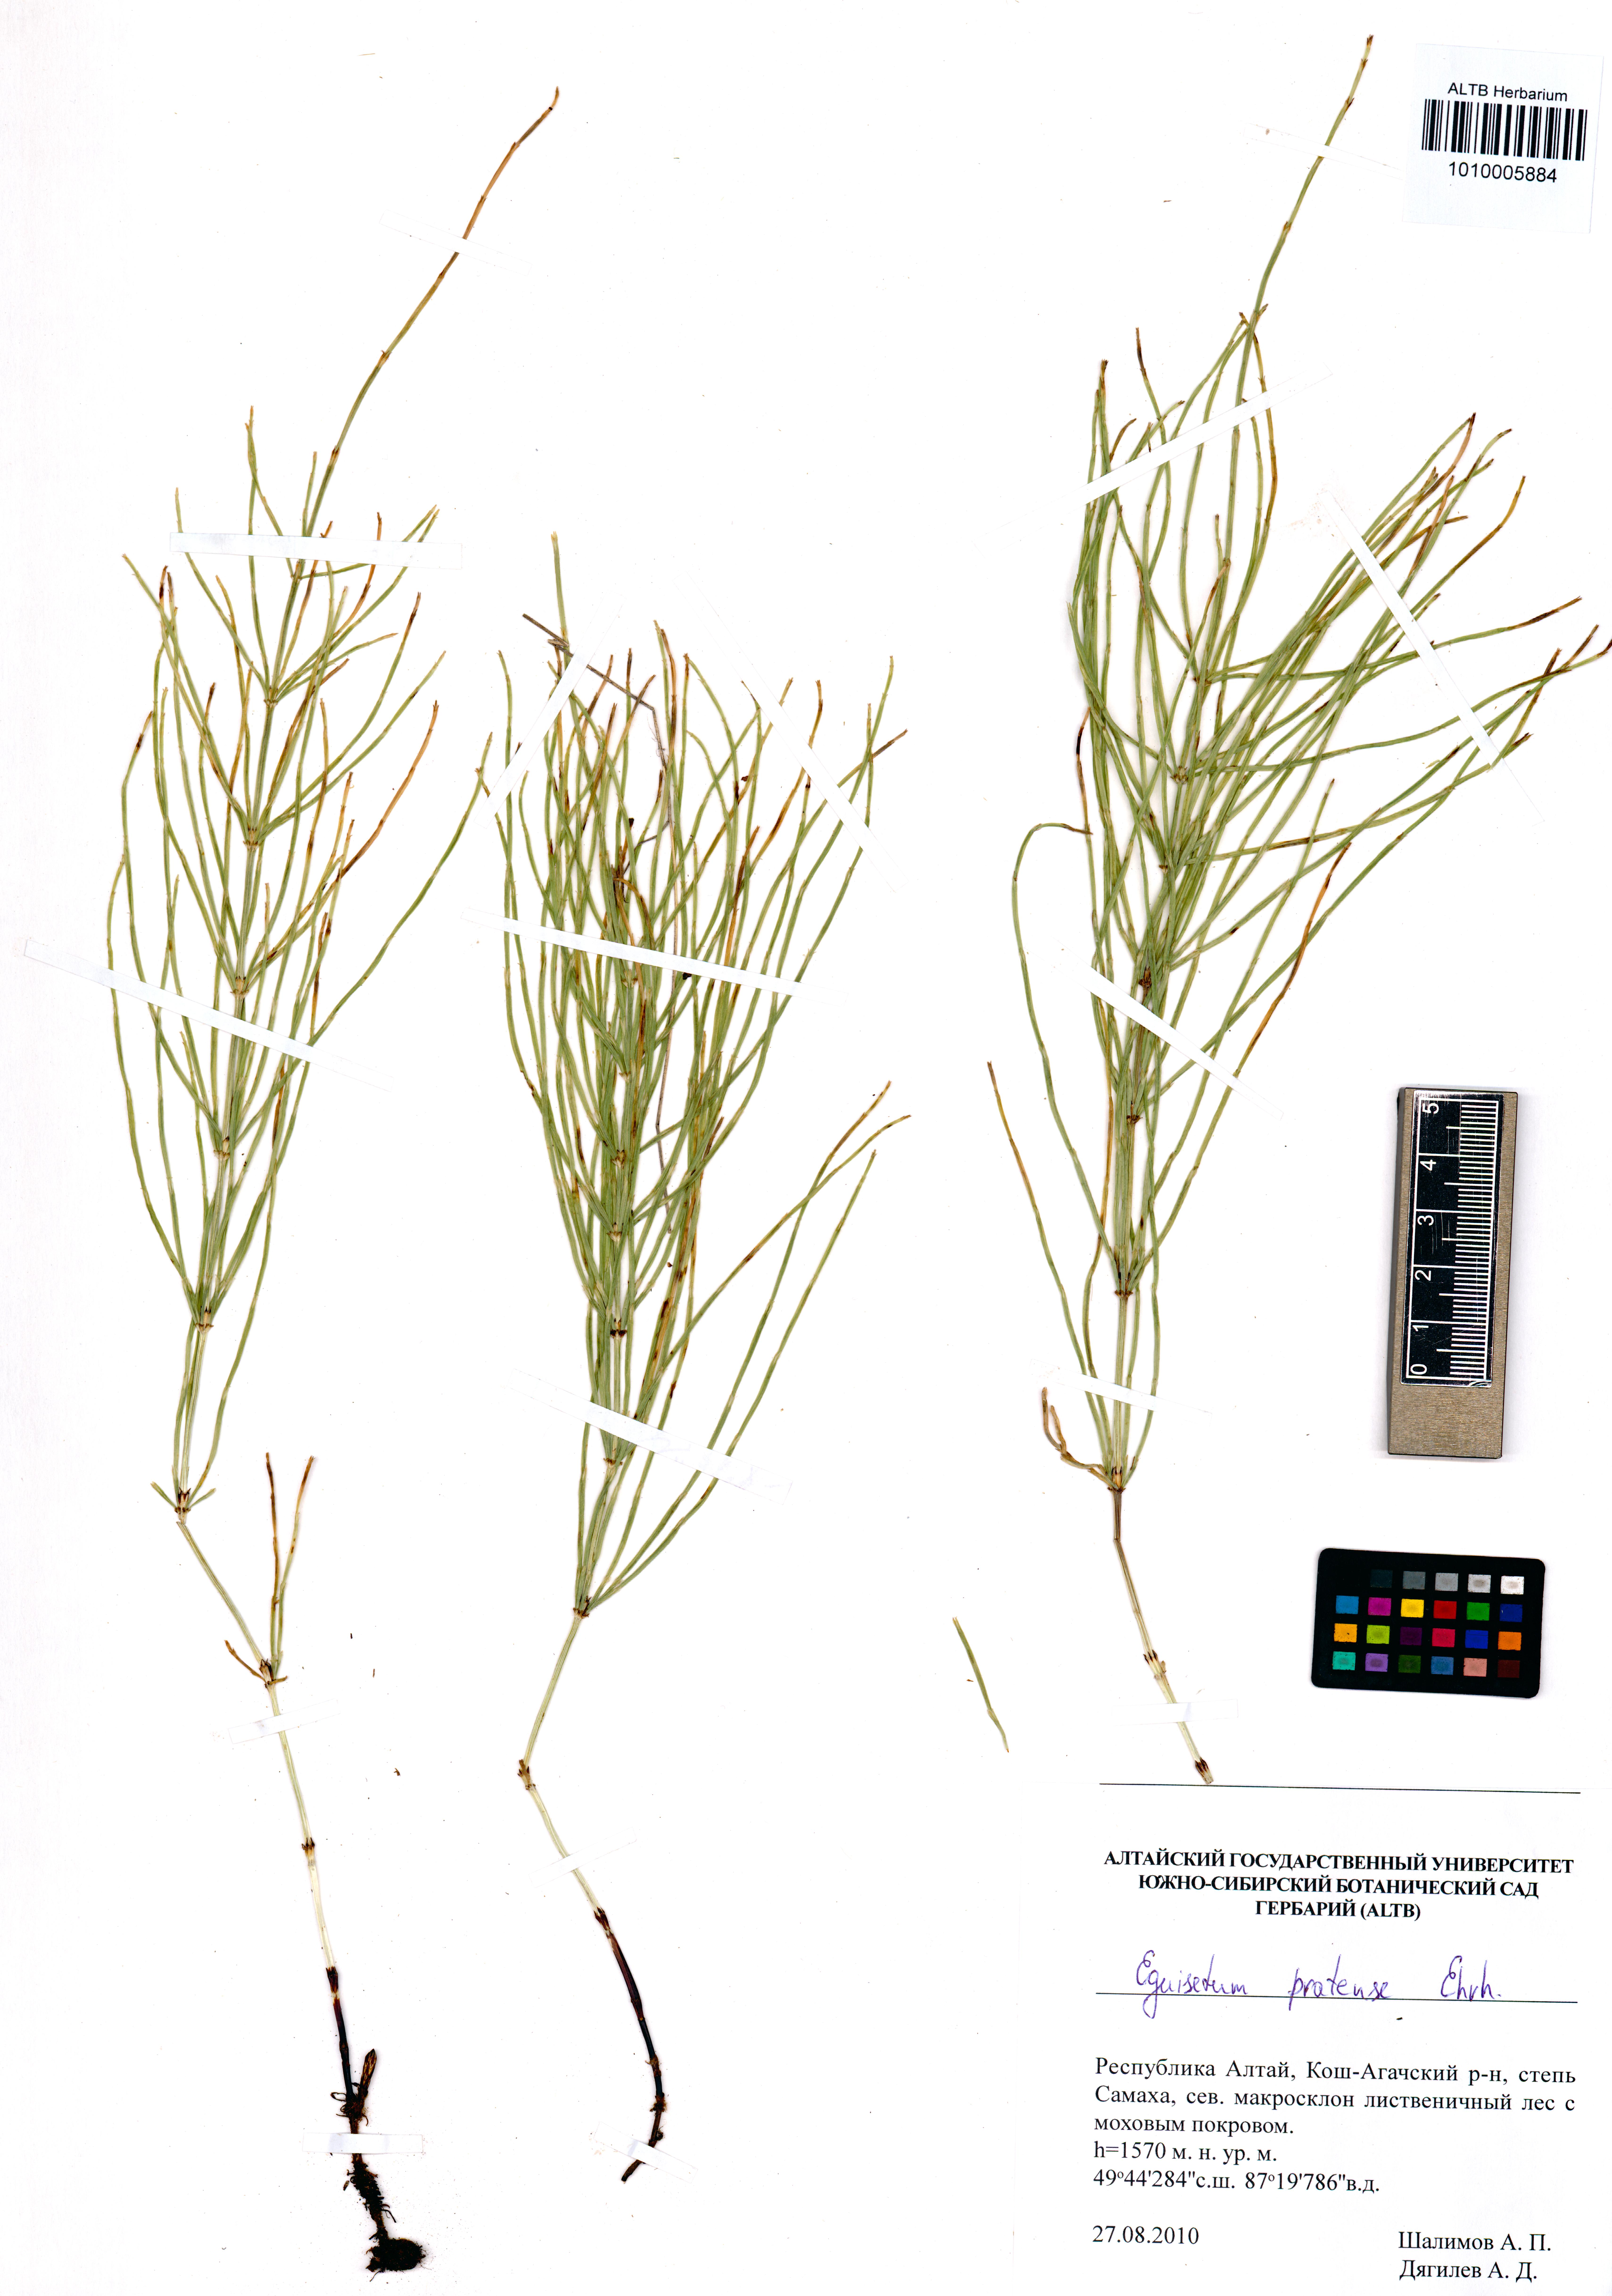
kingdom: Plantae
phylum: Tracheophyta
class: Polypodiopsida
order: Equisetales
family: Equisetaceae
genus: Equisetum
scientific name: Equisetum pratense
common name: Meadow horsetail
